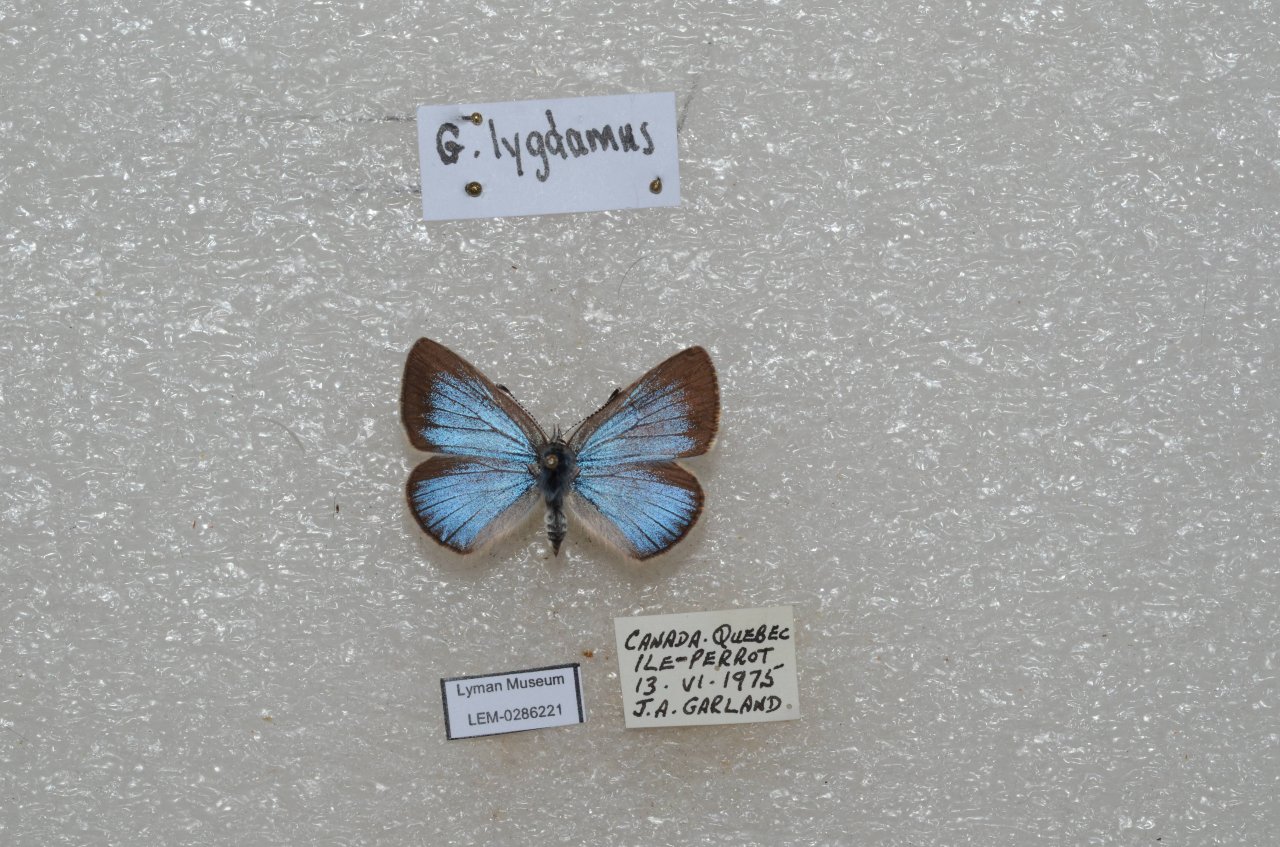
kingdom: Animalia
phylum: Arthropoda
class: Insecta
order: Lepidoptera
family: Lycaenidae
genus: Glaucopsyche
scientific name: Glaucopsyche lygdamus
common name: Silvery Blue
